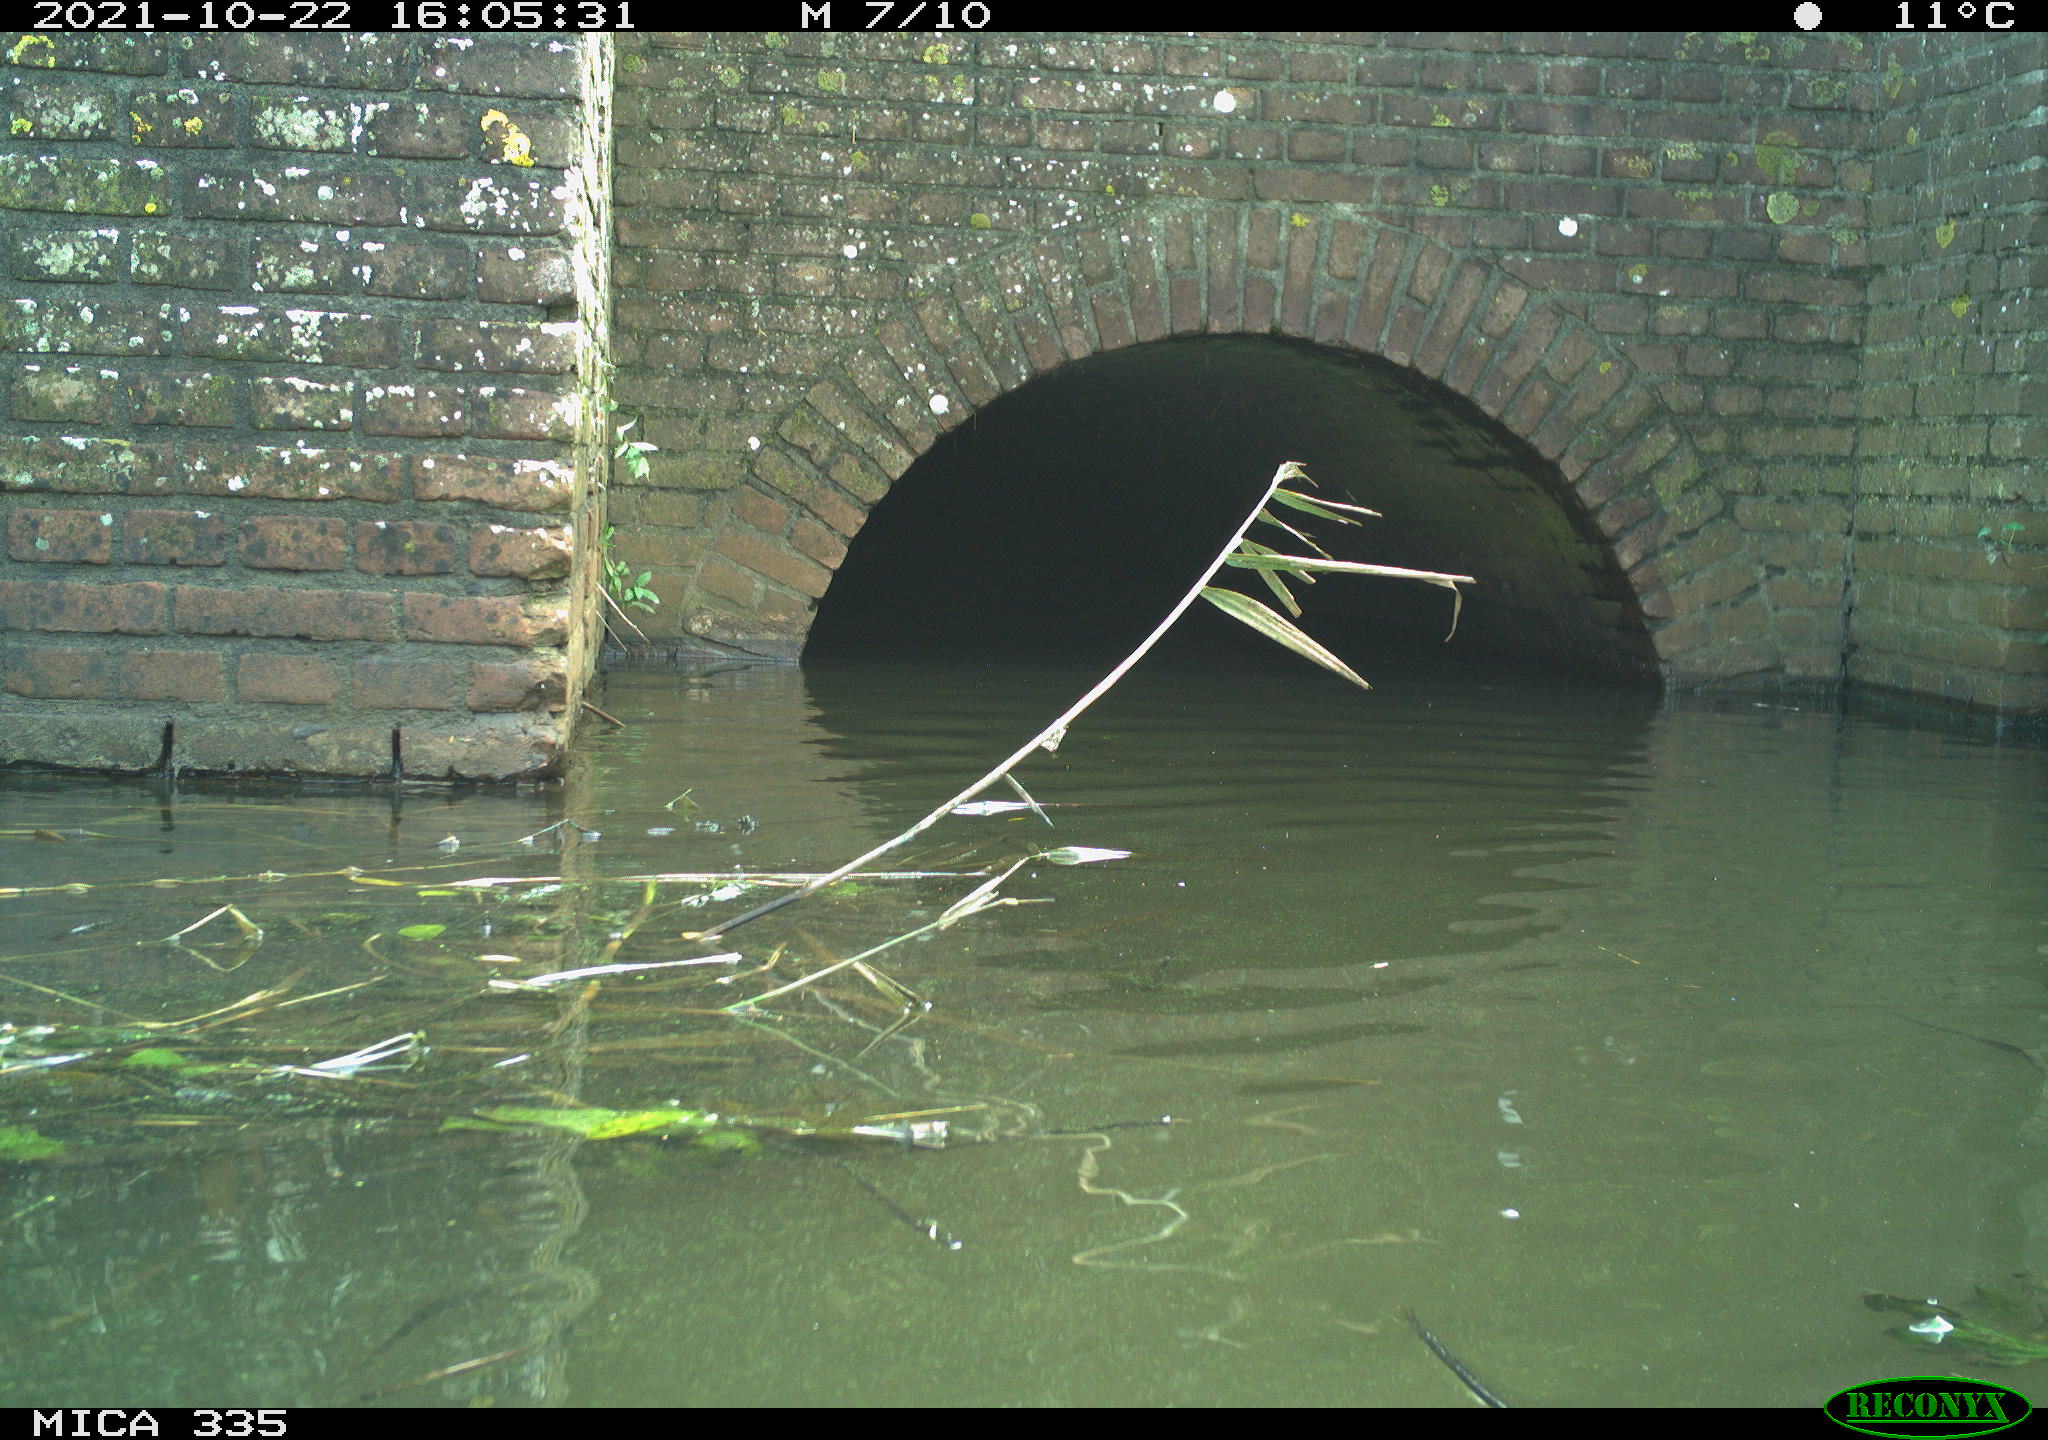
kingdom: Animalia
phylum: Chordata
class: Aves
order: Anseriformes
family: Anatidae
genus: Anas
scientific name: Anas platyrhynchos
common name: Mallard
